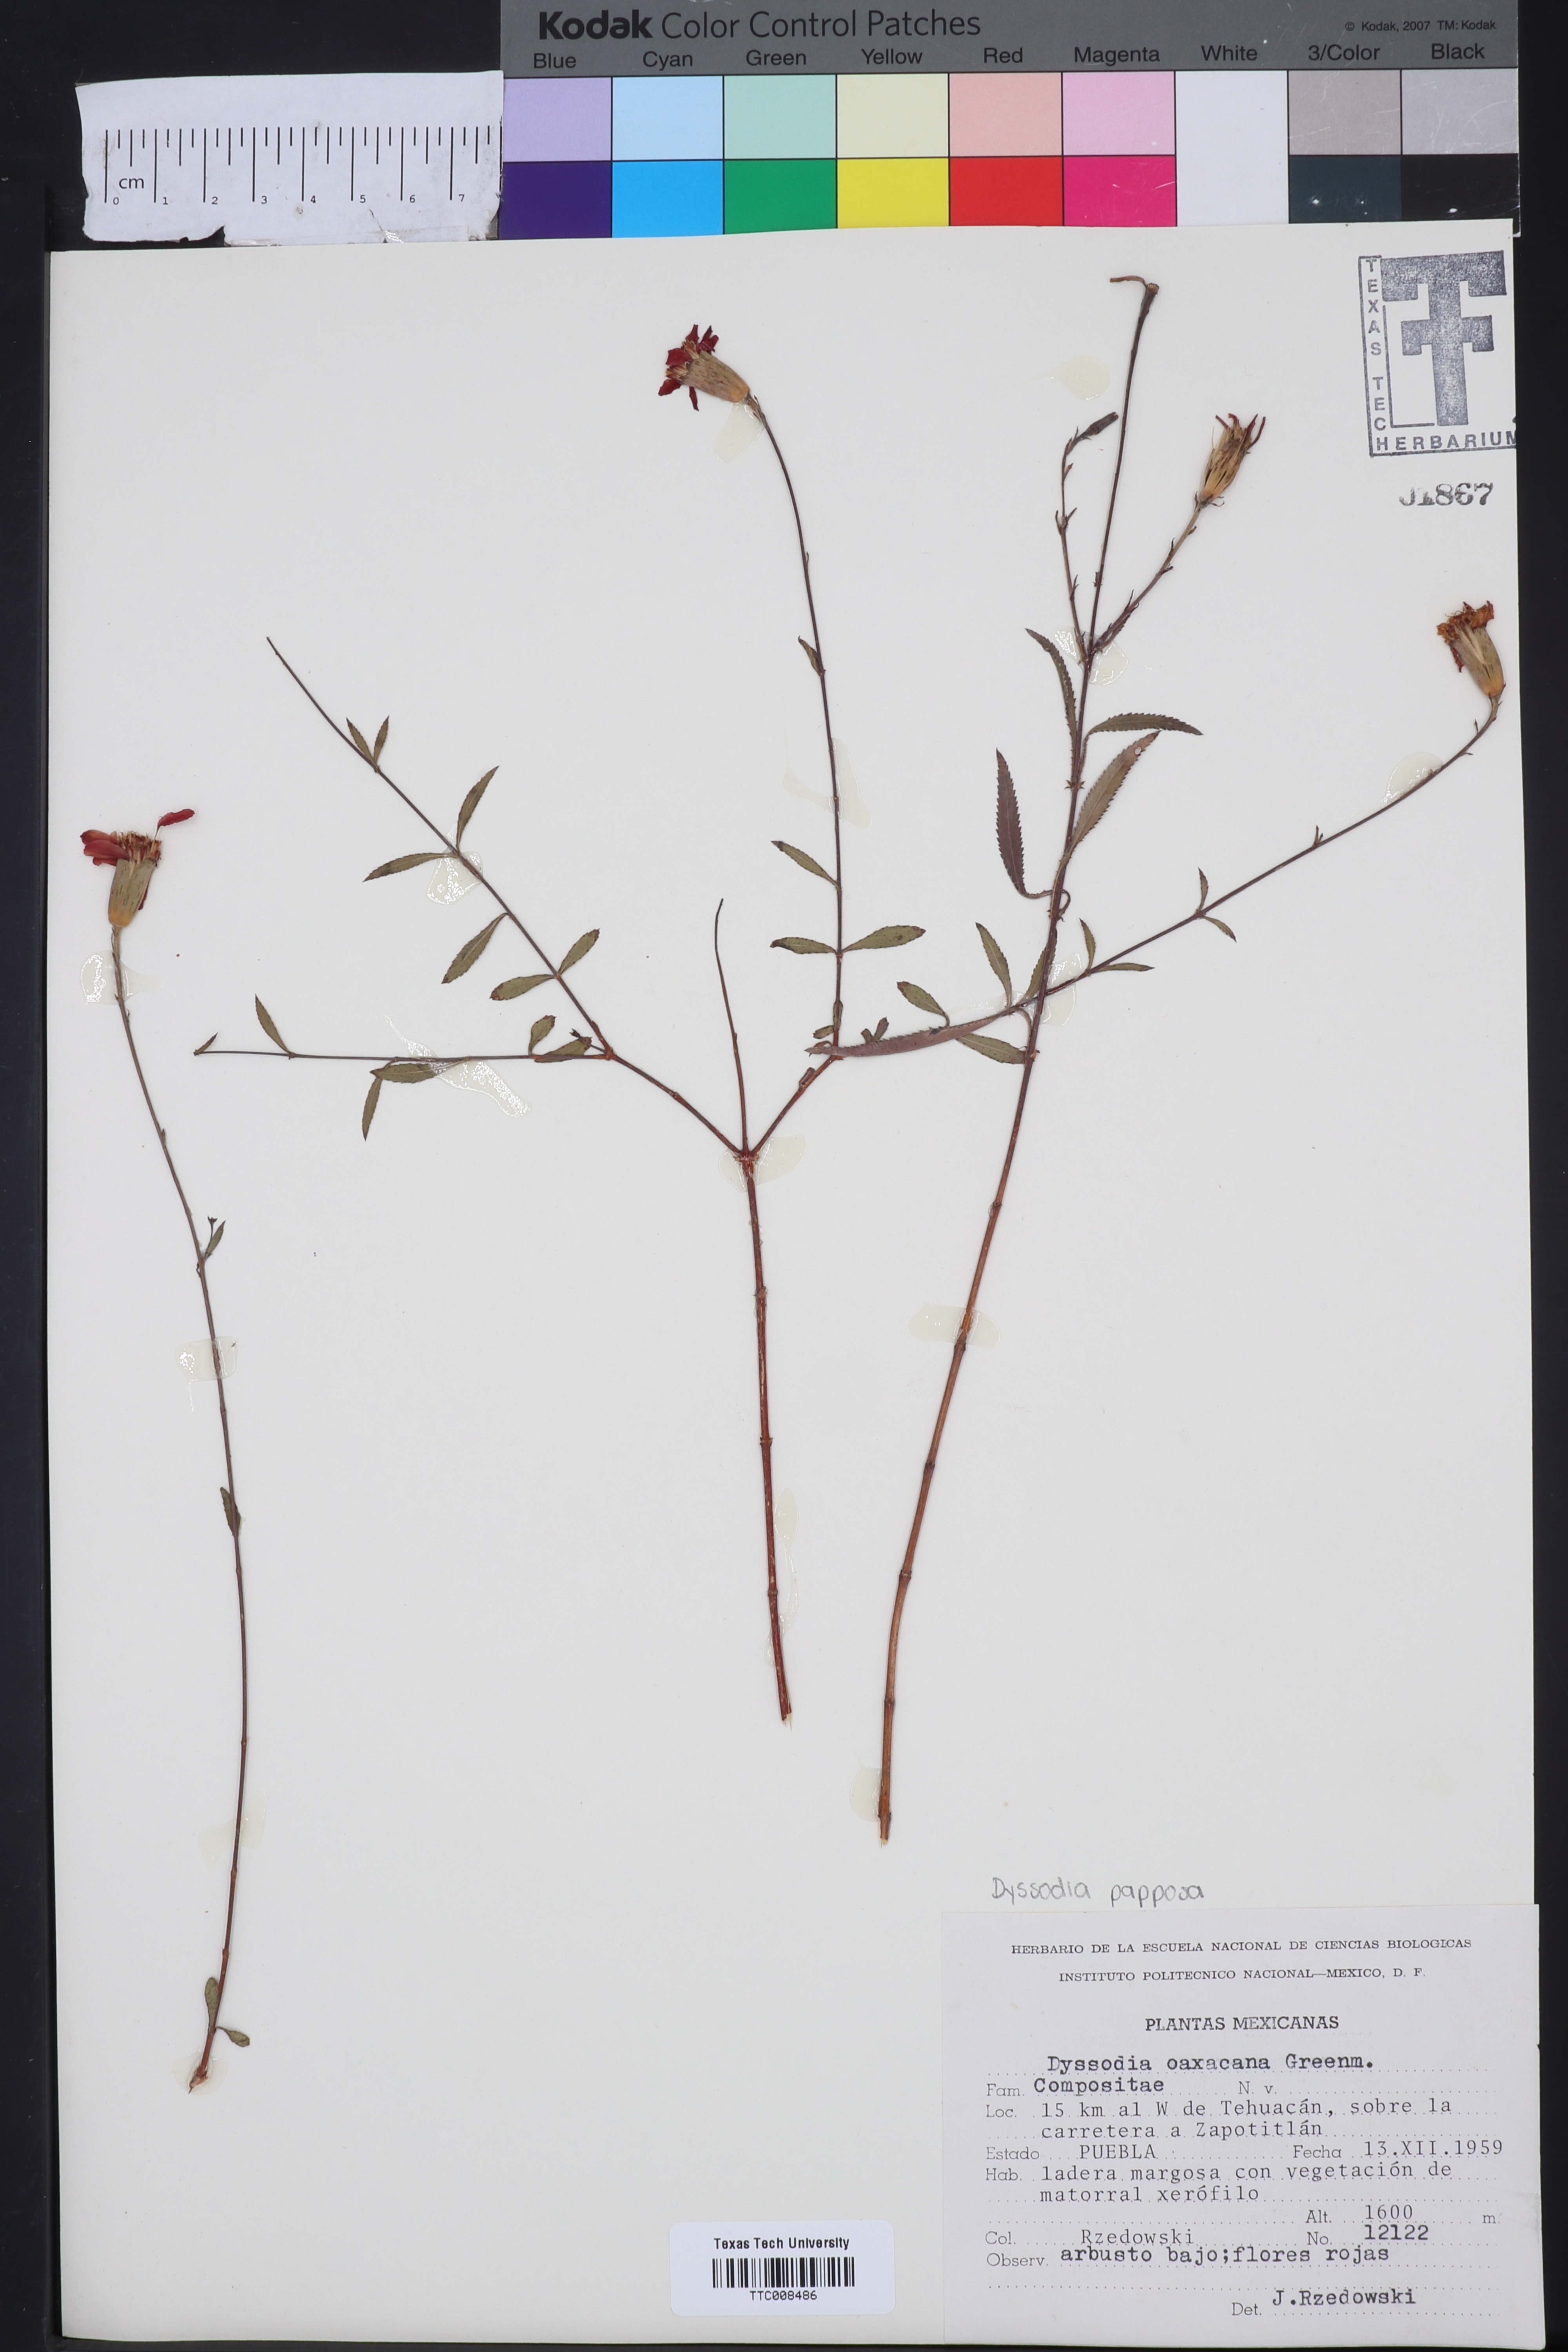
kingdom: Plantae
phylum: Tracheophyta
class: Magnoliopsida
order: Asterales
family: Asteraceae
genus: Gymnolaena
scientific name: Gymnolaena oaxacana
